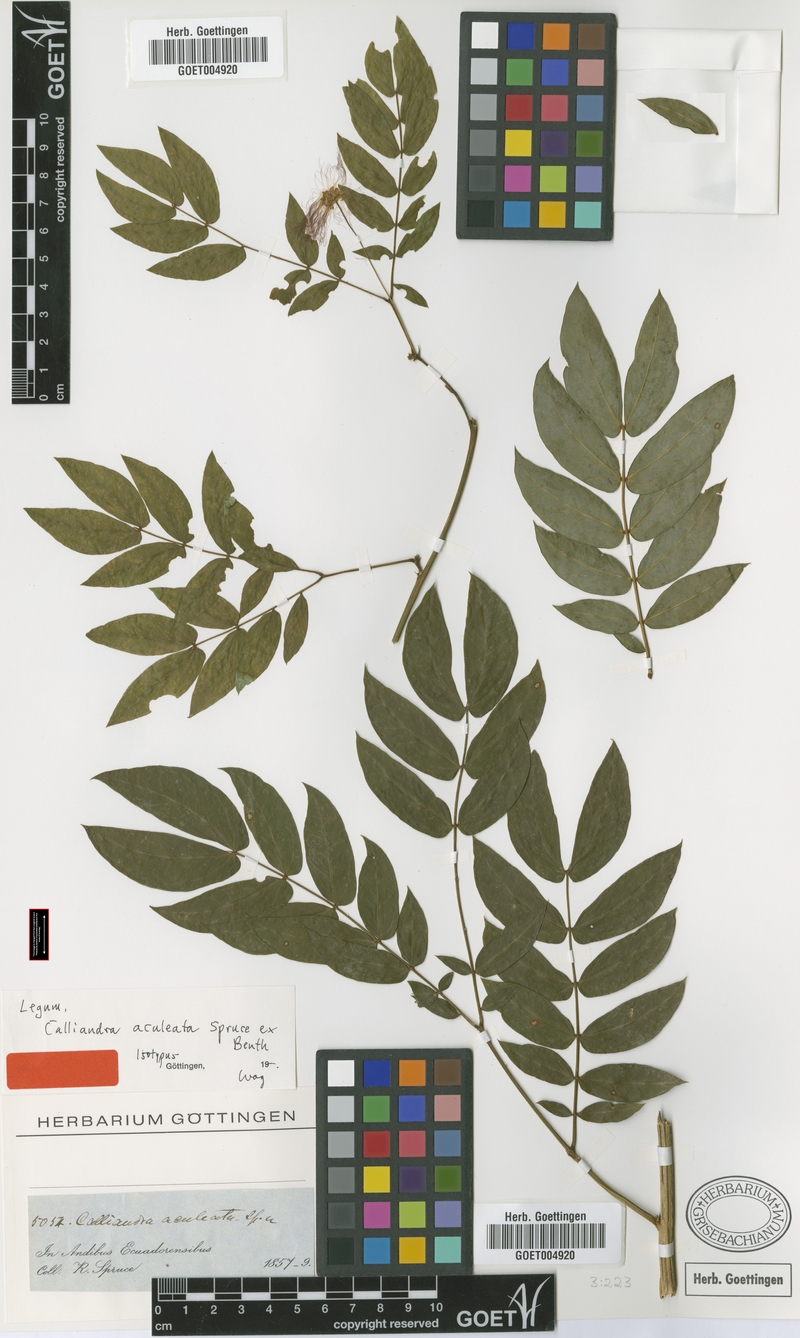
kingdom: Plantae
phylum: Tracheophyta
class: Magnoliopsida
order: Fabales
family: Fabaceae
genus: Zapoteca
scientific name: Zapoteca aculeata
